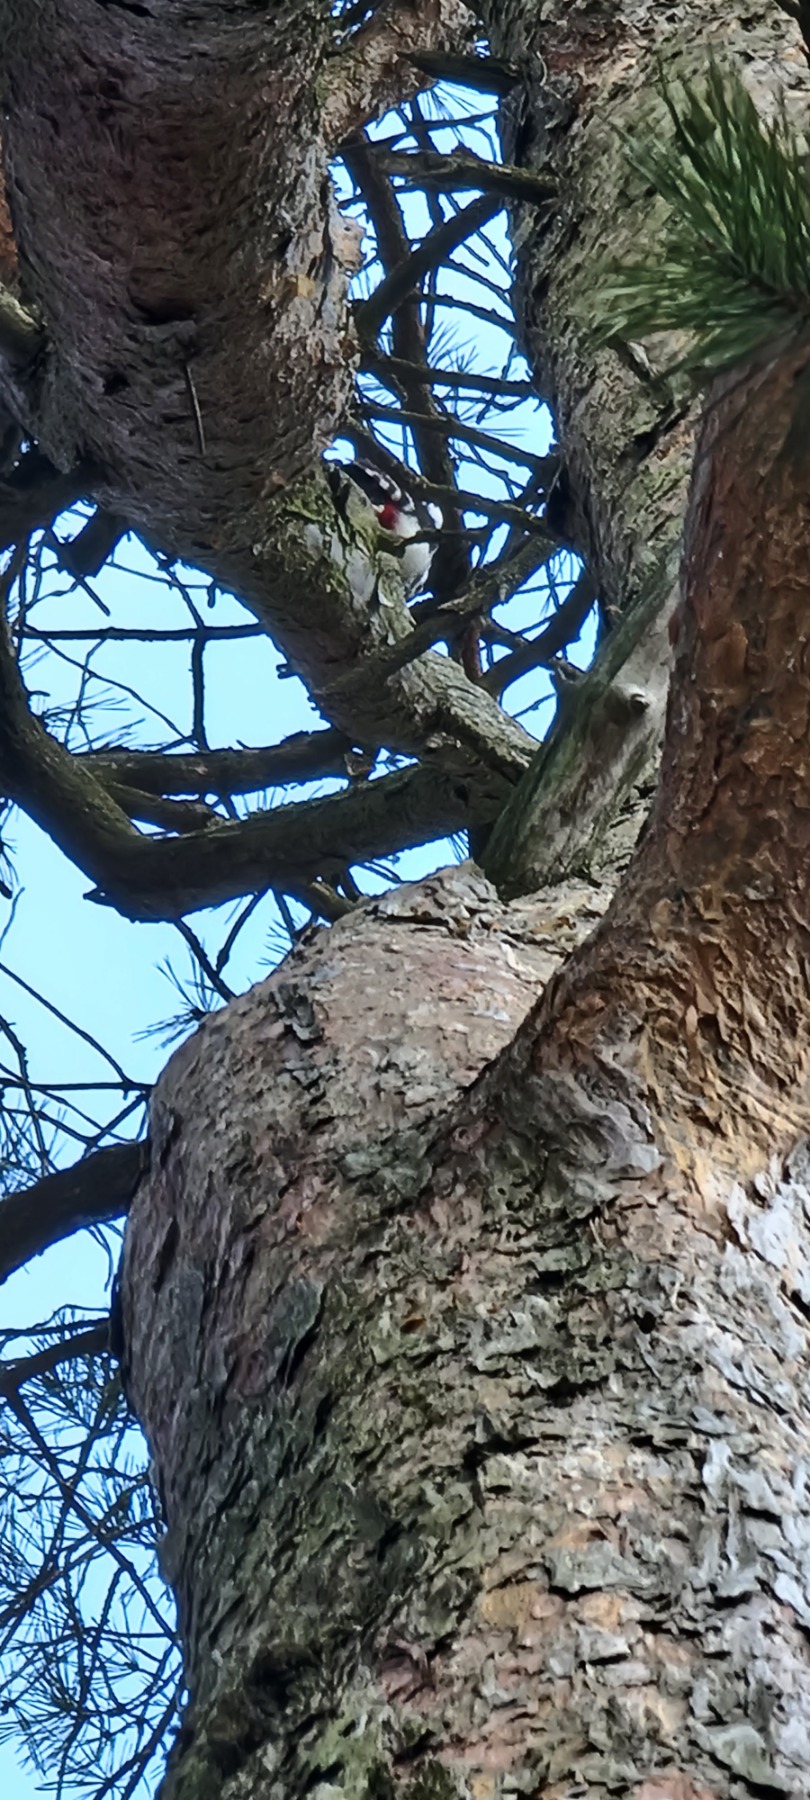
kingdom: Animalia
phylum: Chordata
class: Aves
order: Piciformes
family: Picidae
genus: Dendrocopos
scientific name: Dendrocopos major
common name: Stor flagspætte
